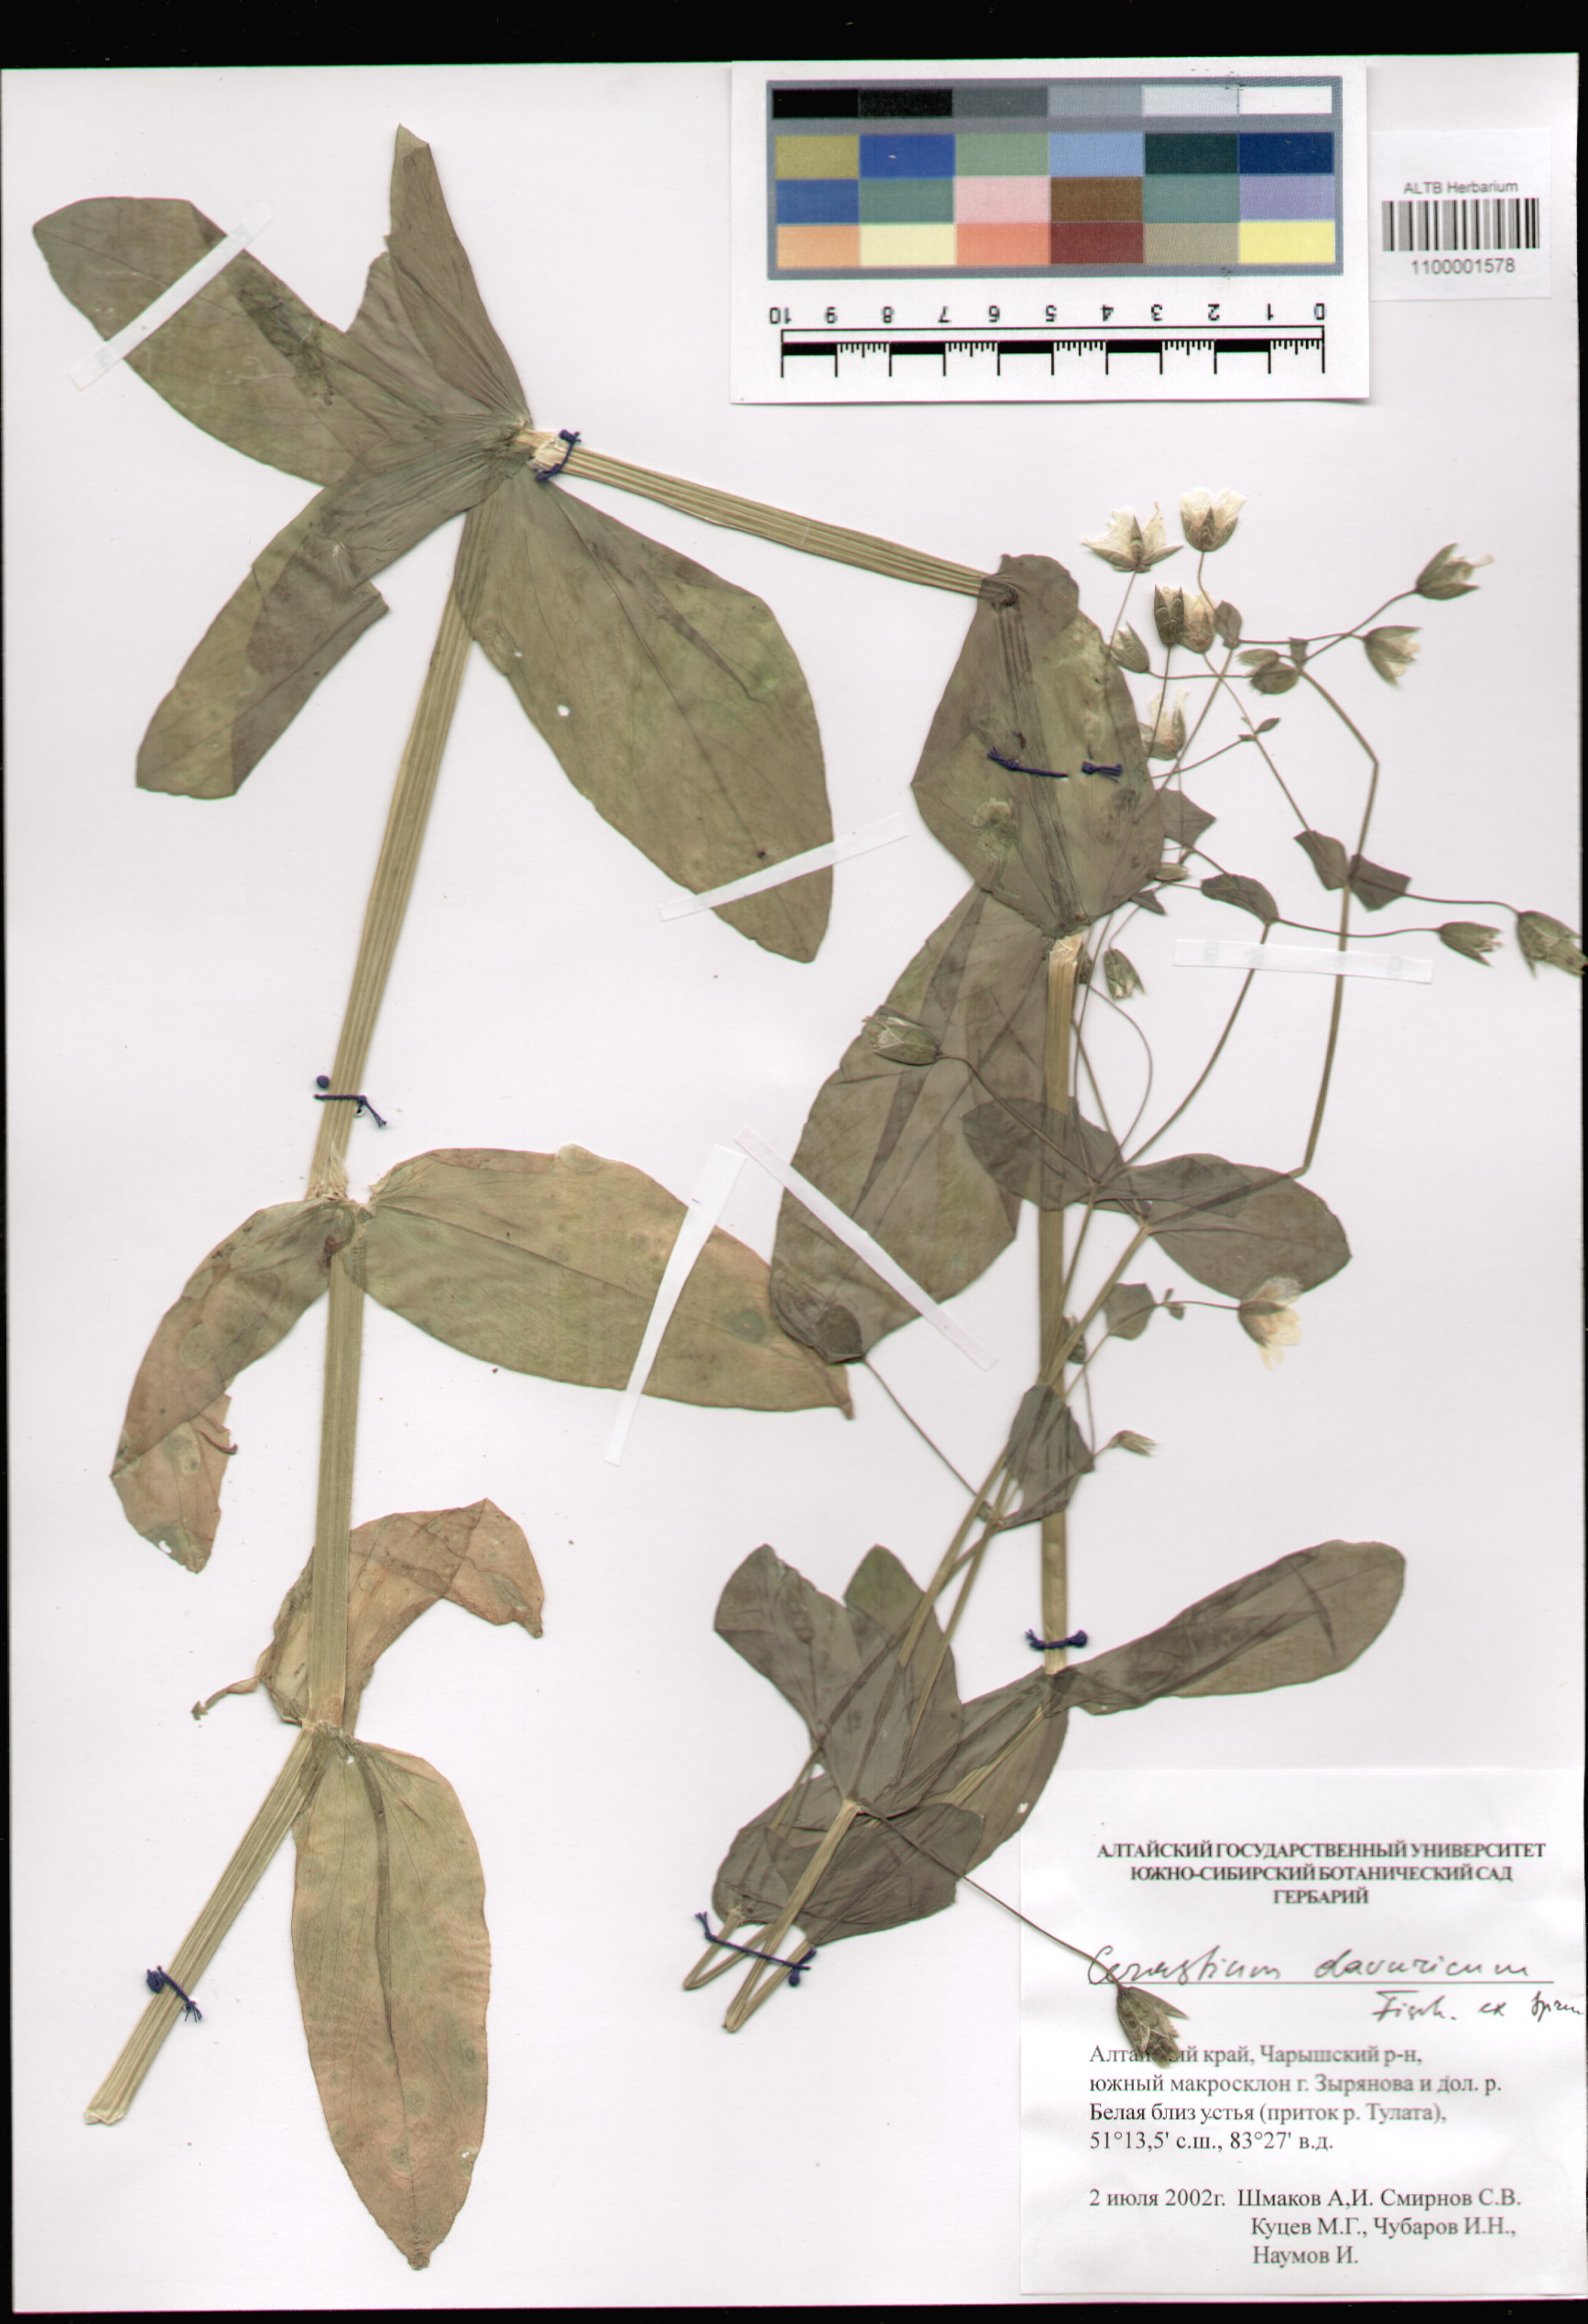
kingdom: Plantae
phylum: Tracheophyta
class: Magnoliopsida
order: Caryophyllales
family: Caryophyllaceae
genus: Dichodon
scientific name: Dichodon davuricum
